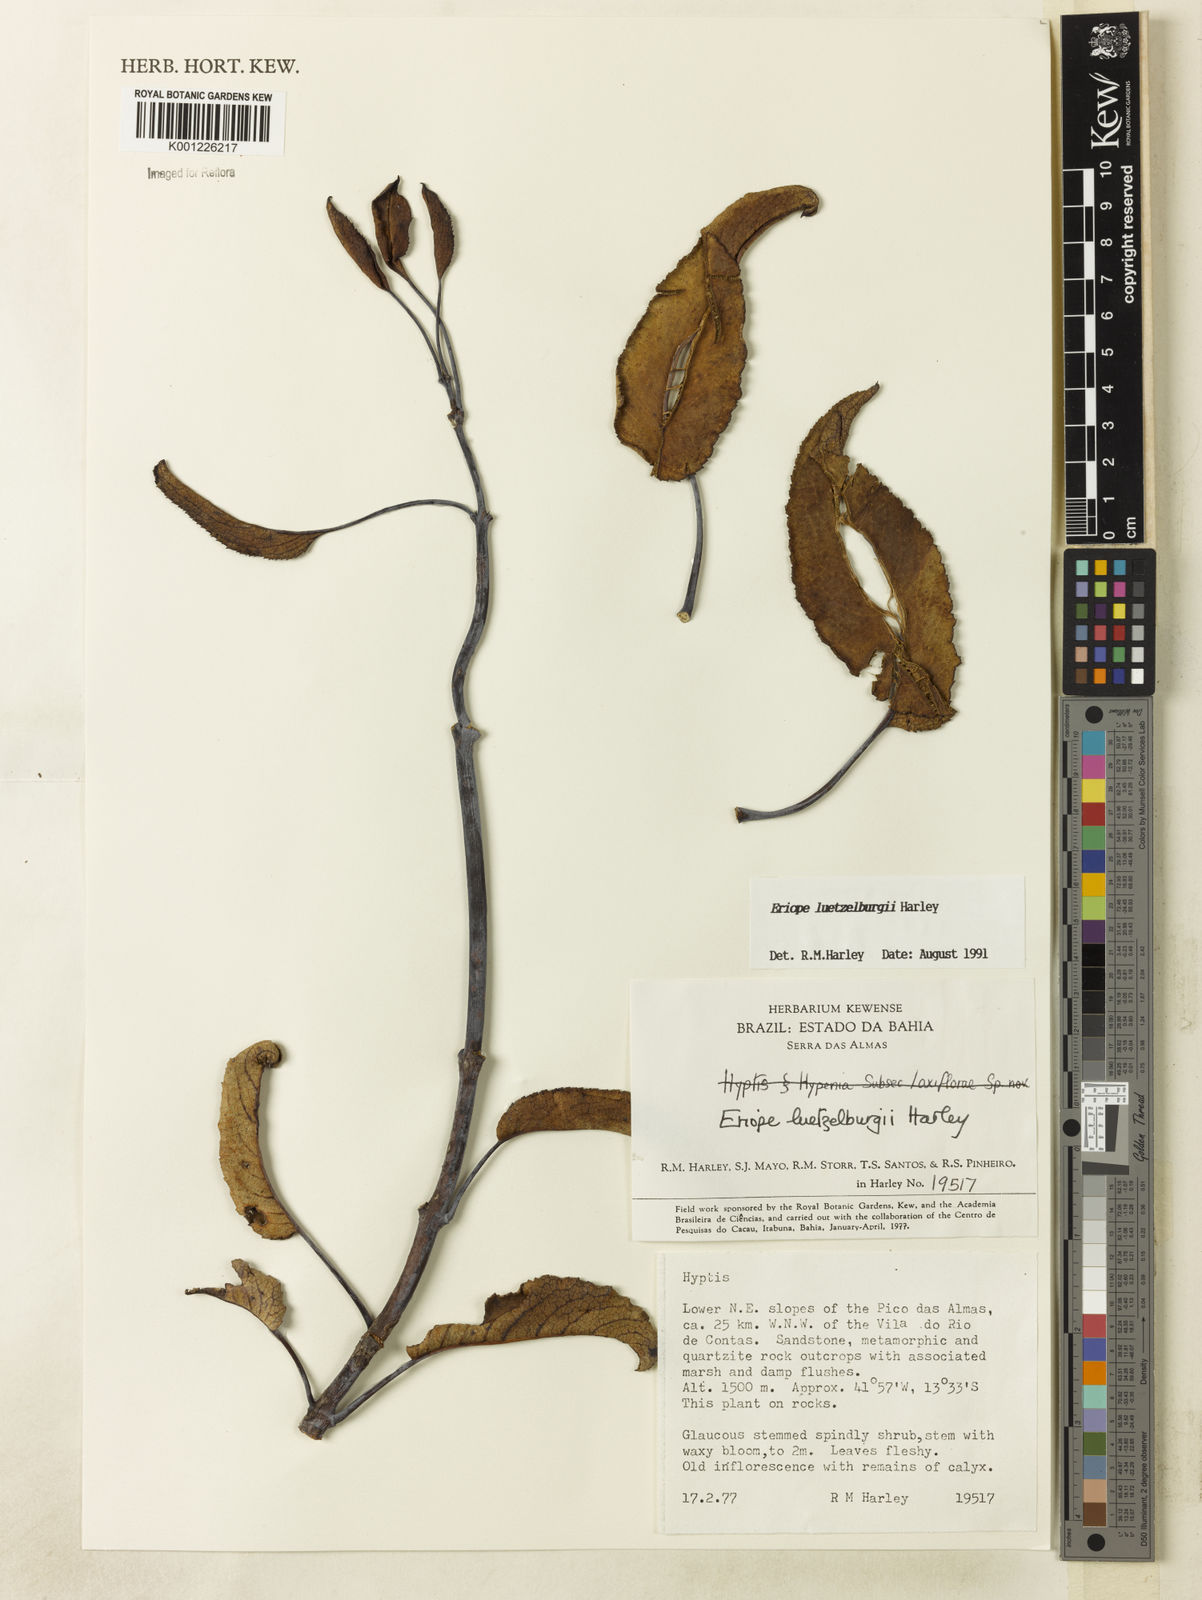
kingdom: Plantae
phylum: Tracheophyta
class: Magnoliopsida
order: Lamiales
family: Lamiaceae
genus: Eriope
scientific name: Eriope luetzelburgii
